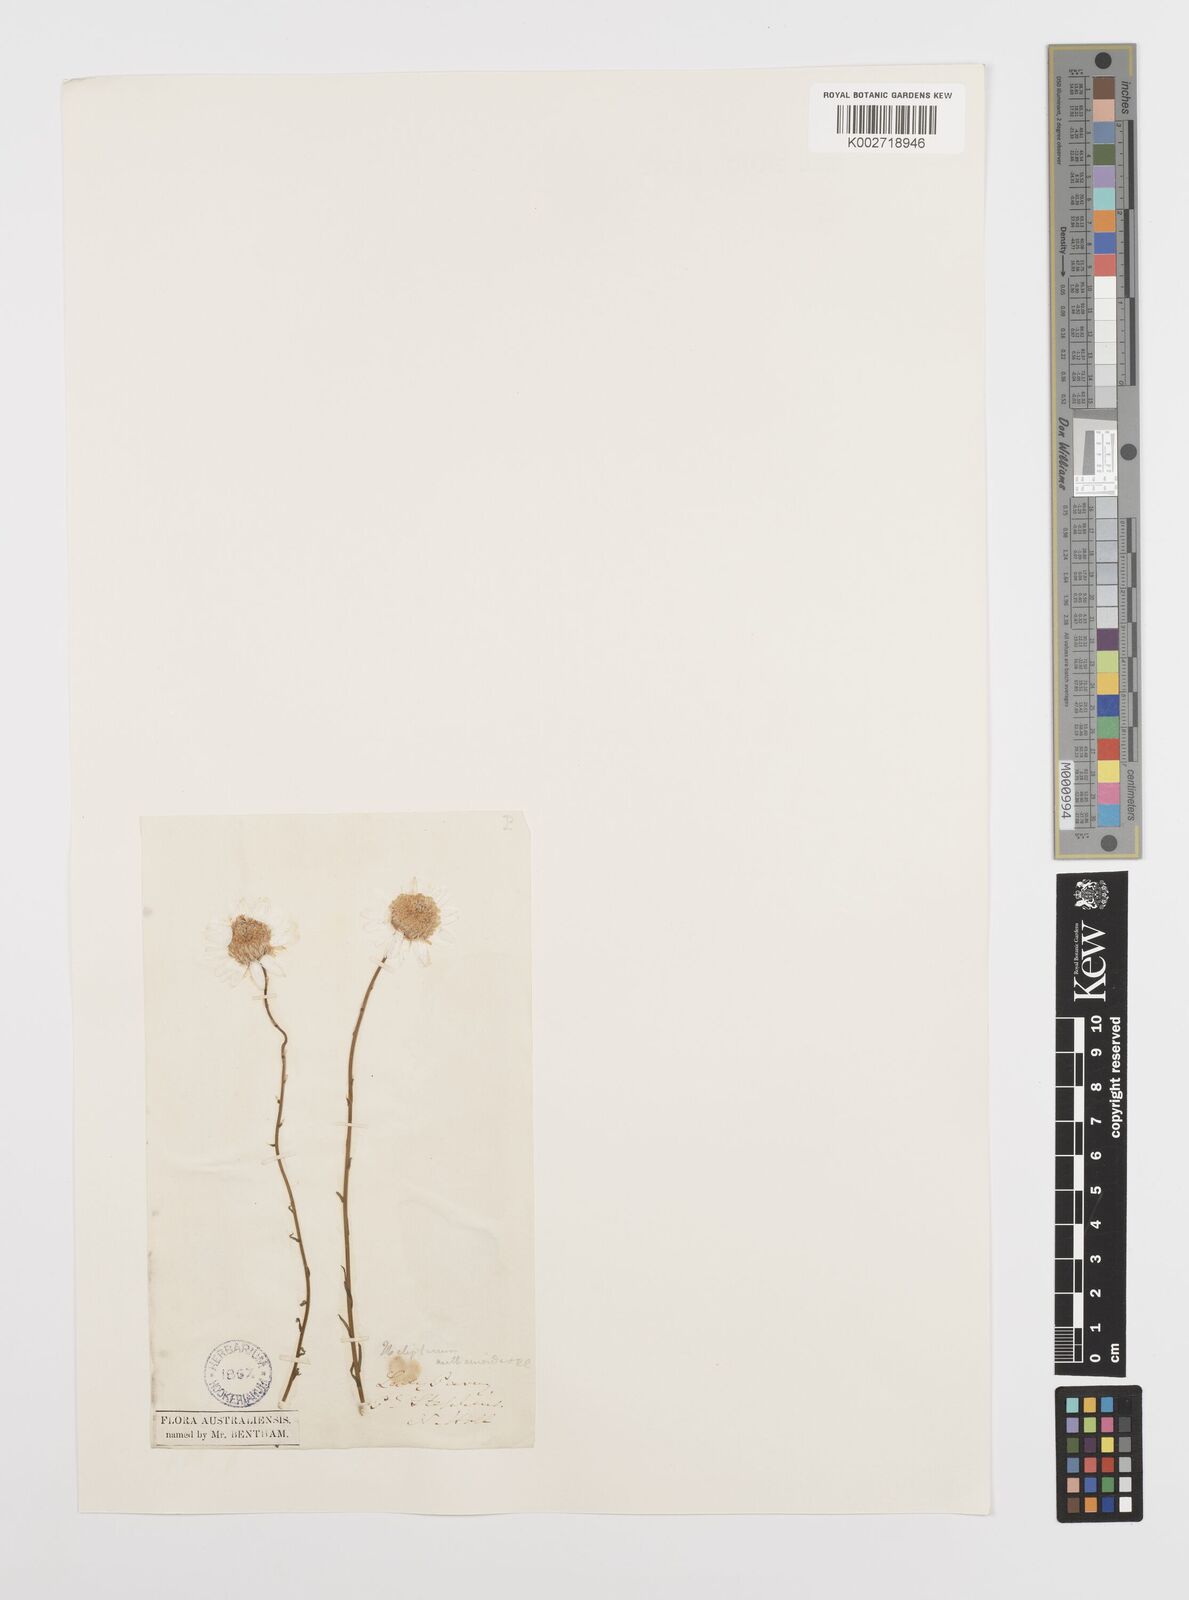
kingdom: Plantae
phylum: Tracheophyta
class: Magnoliopsida
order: Asterales
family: Asteraceae
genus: Rhodanthe
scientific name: Rhodanthe anthemoides
